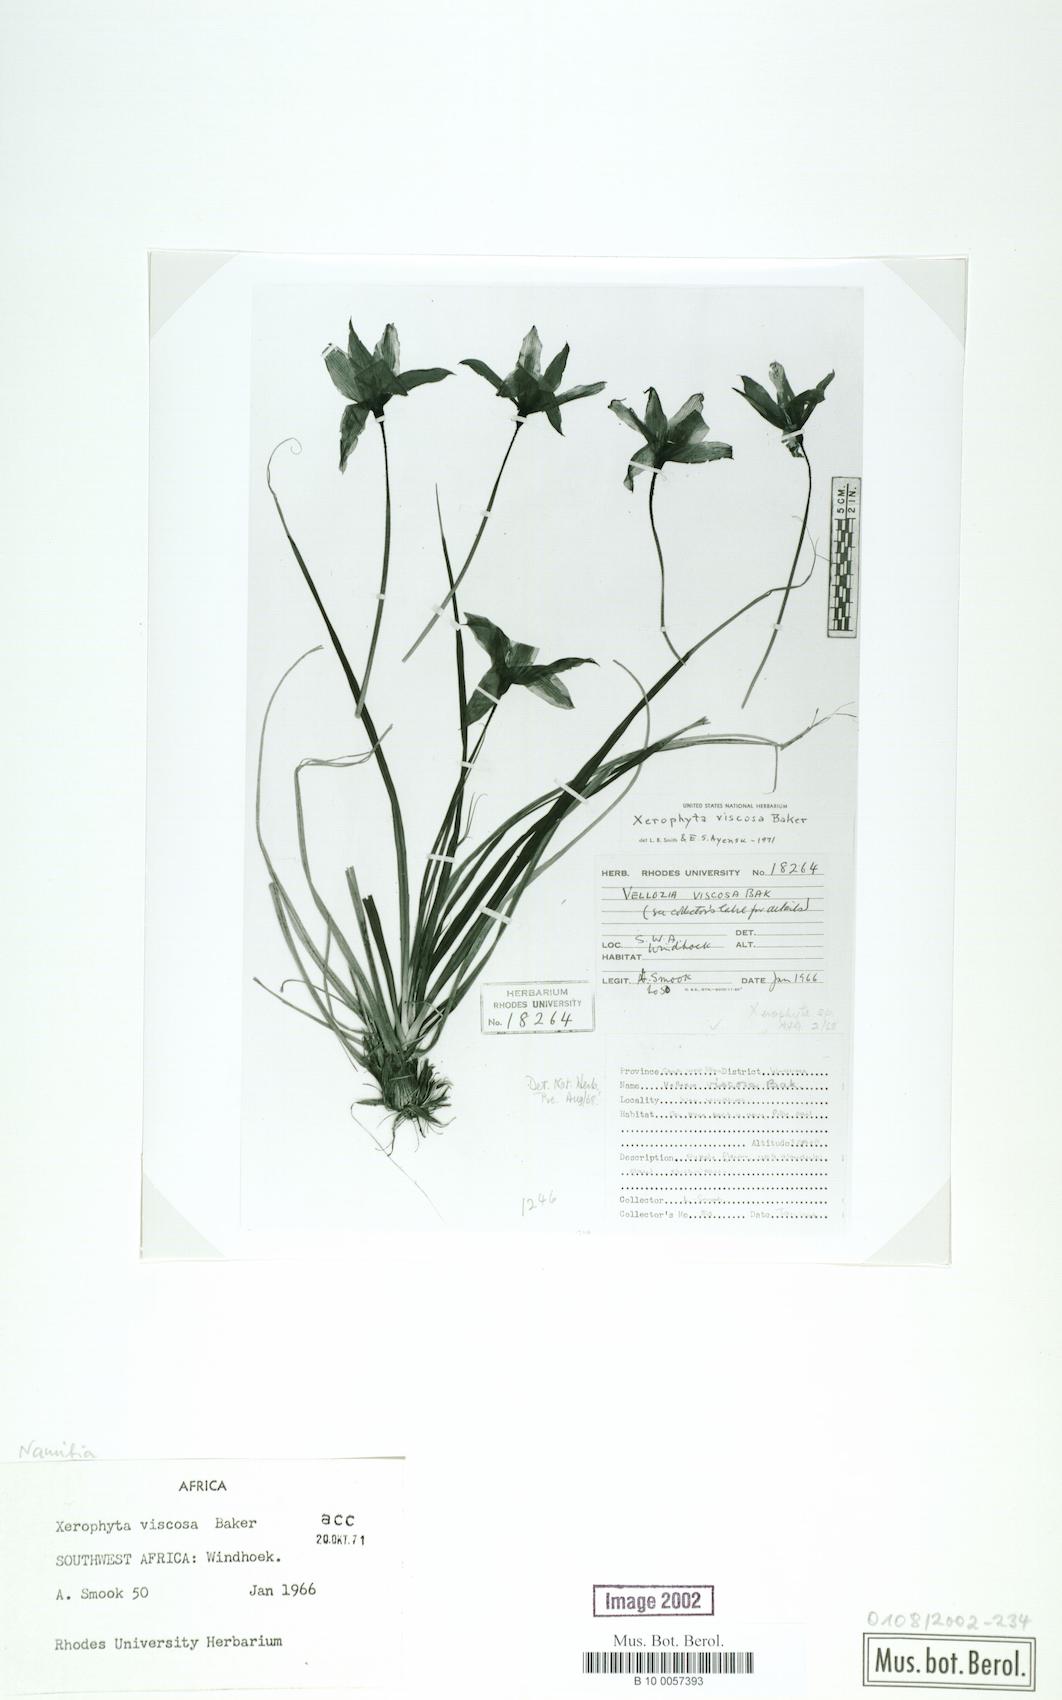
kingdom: Plantae
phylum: Tracheophyta
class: Liliopsida
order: Pandanales
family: Velloziaceae
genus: Xerophyta
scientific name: Xerophyta viscosa
